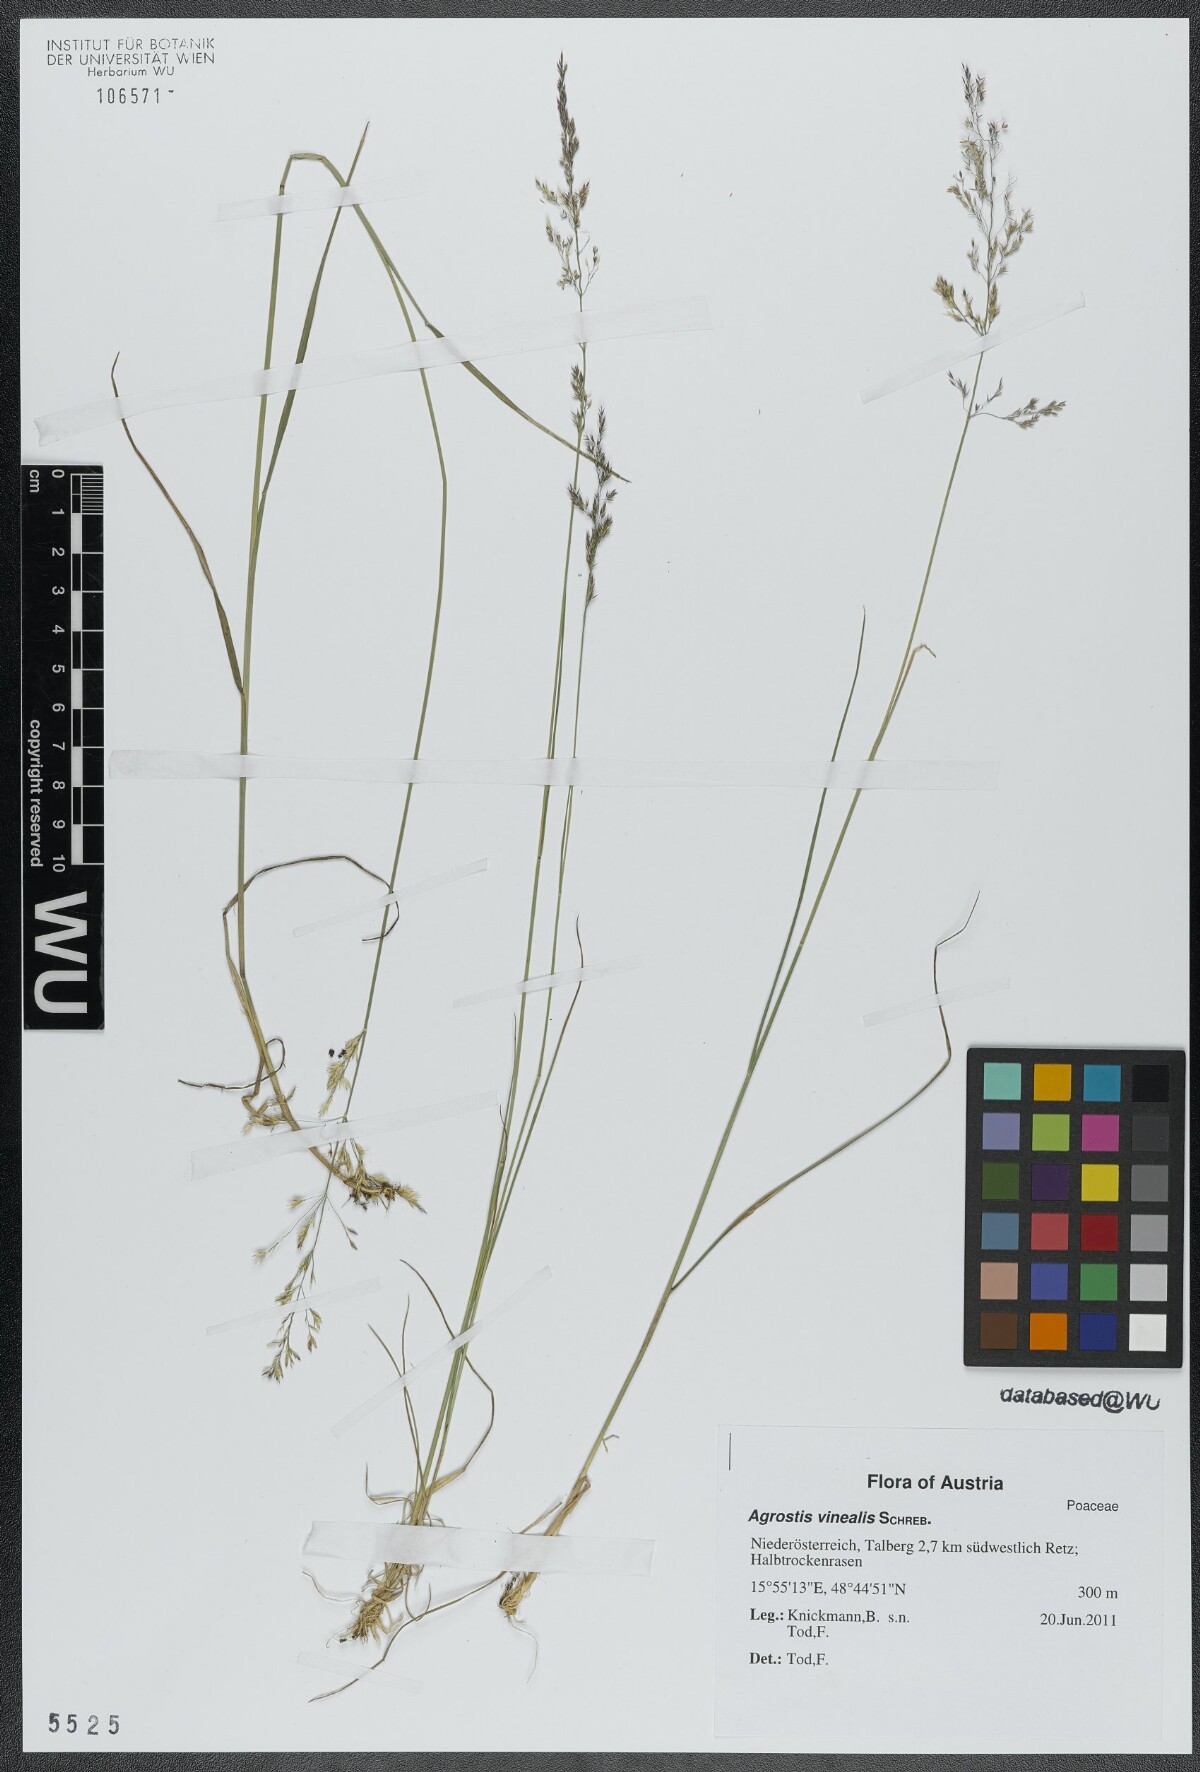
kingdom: Plantae
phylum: Tracheophyta
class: Liliopsida
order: Poales
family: Poaceae
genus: Agrostis
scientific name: Agrostis vinealis
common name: Brown bent
